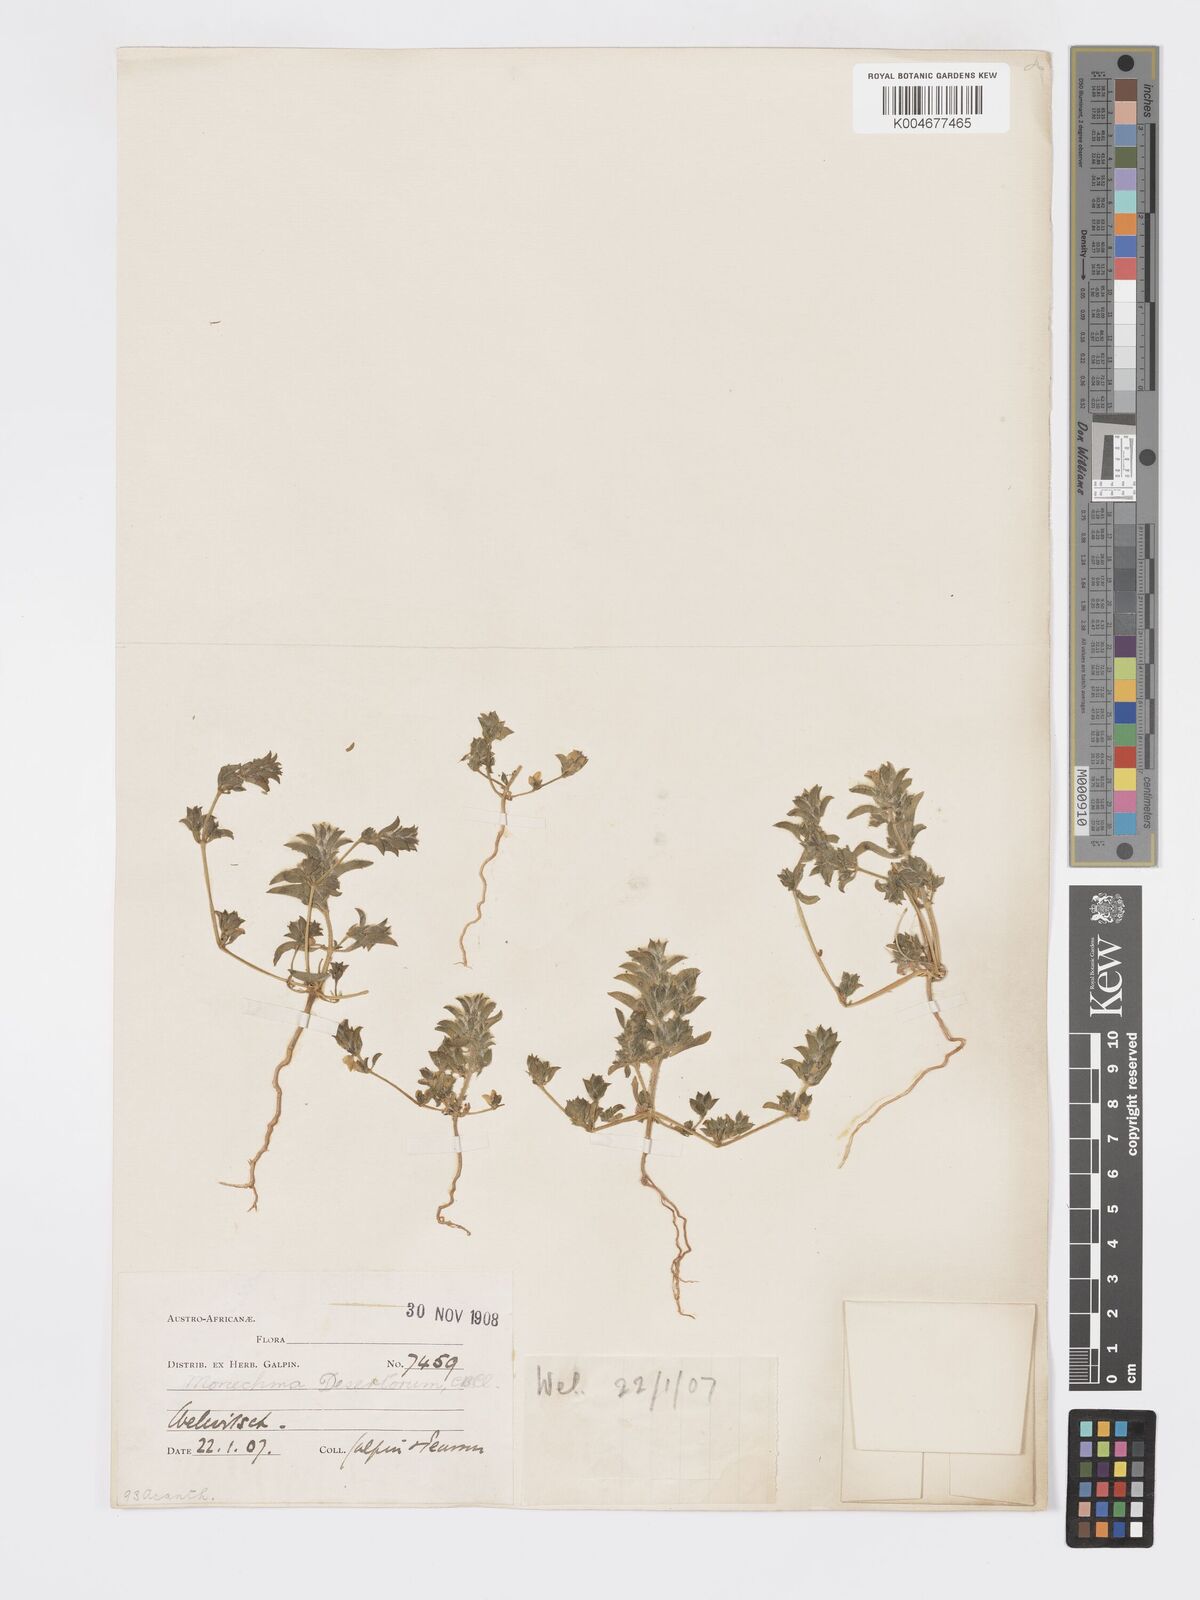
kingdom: Plantae
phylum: Tracheophyta
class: Magnoliopsida
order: Lamiales
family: Acanthaceae
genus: Pogonospermum
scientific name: Pogonospermum
